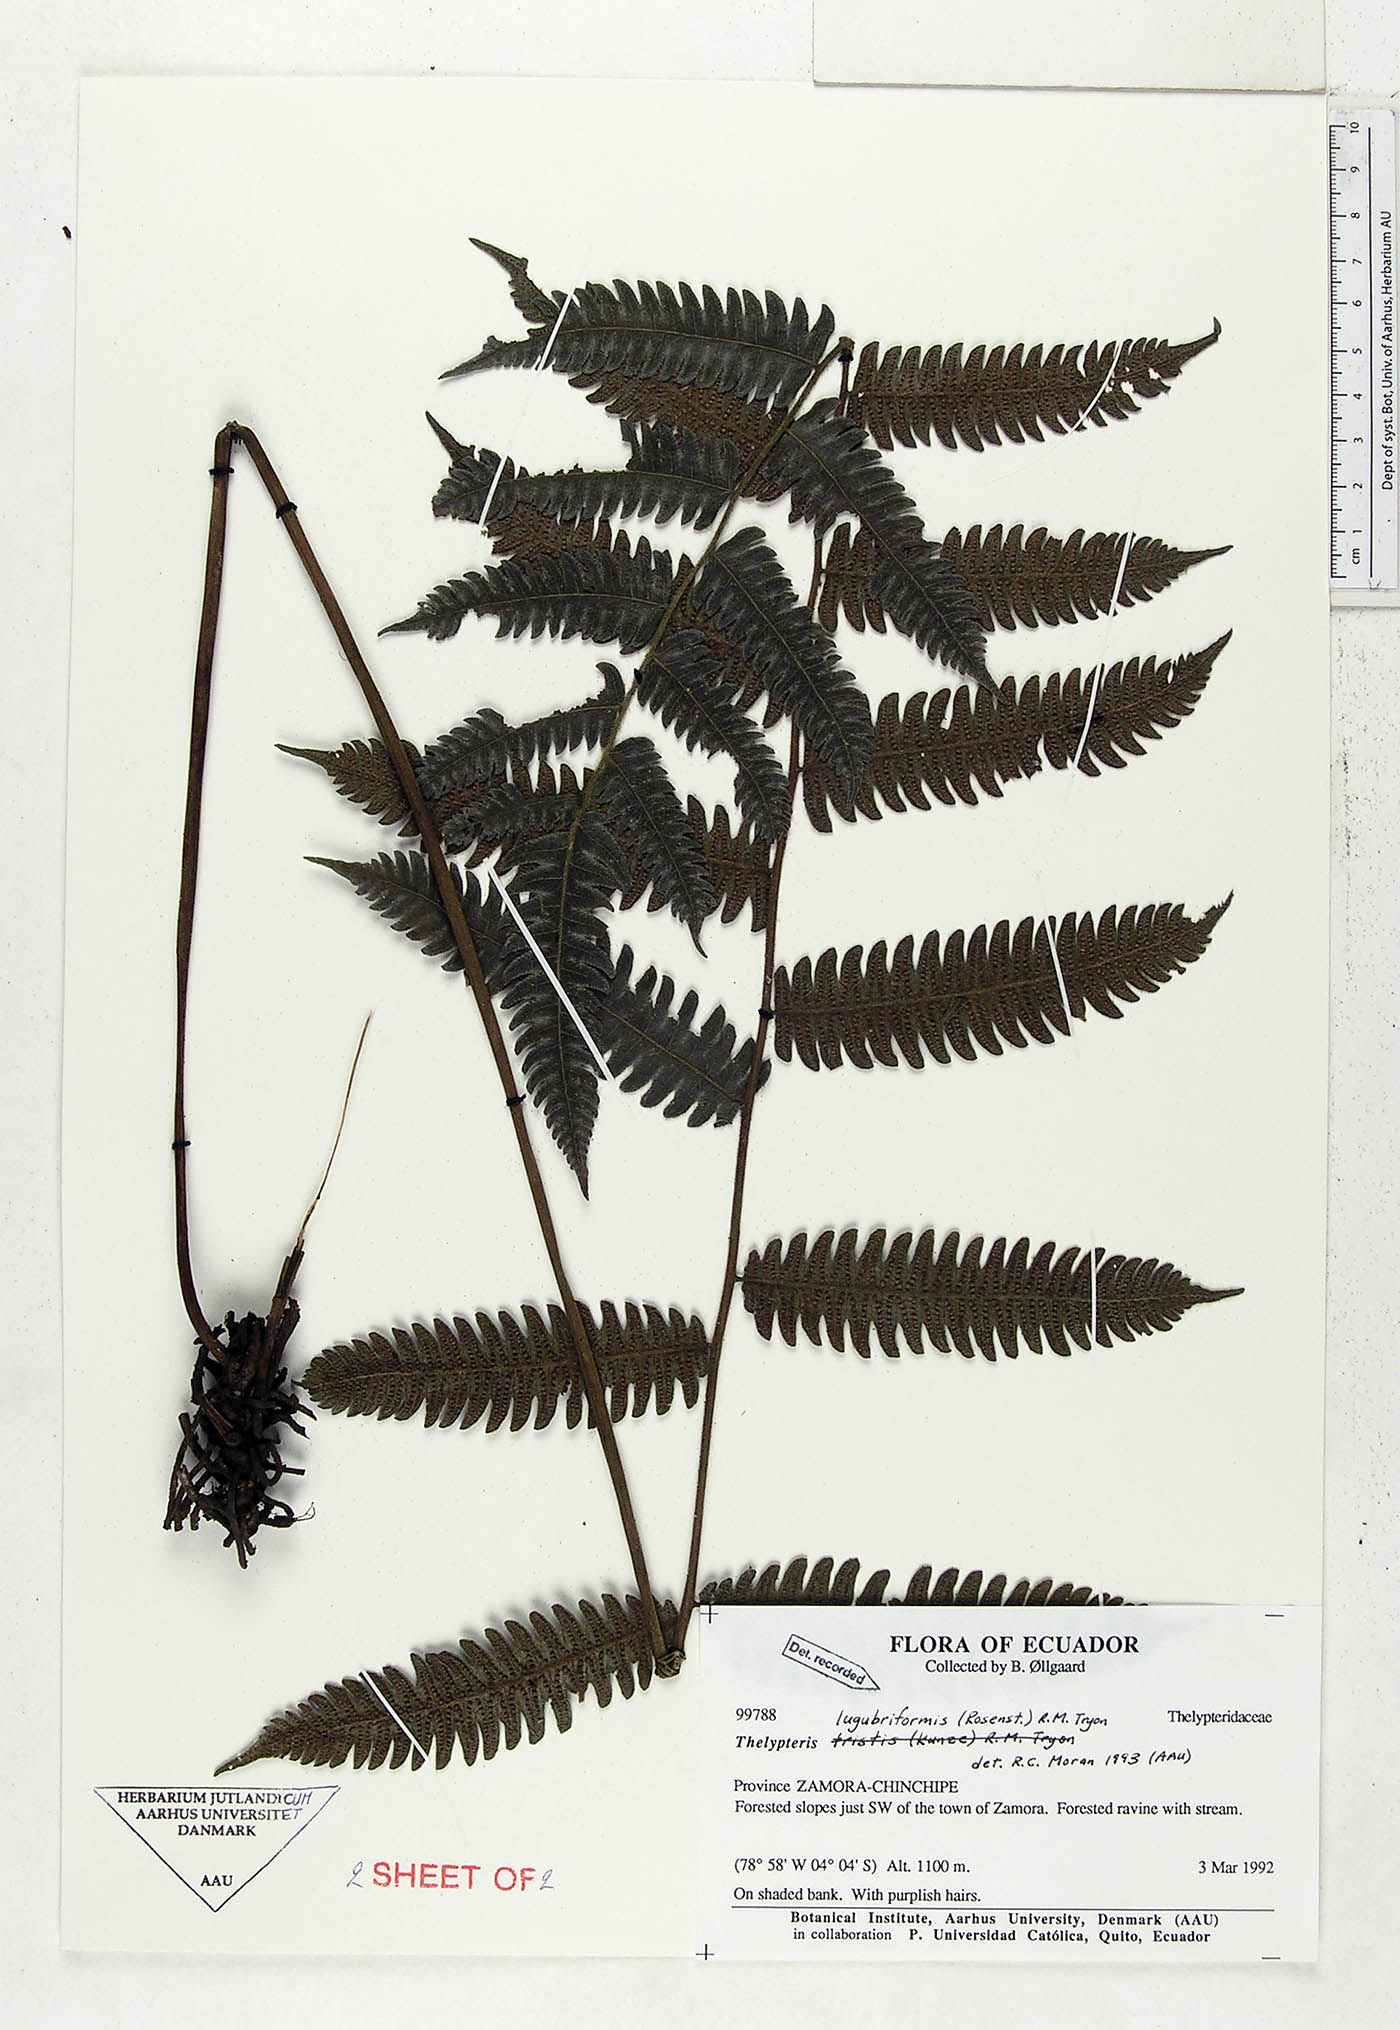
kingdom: Plantae
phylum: Tracheophyta
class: Polypodiopsida
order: Polypodiales
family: Thelypteridaceae
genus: Goniopteris
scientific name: Goniopteris lugubriformis
